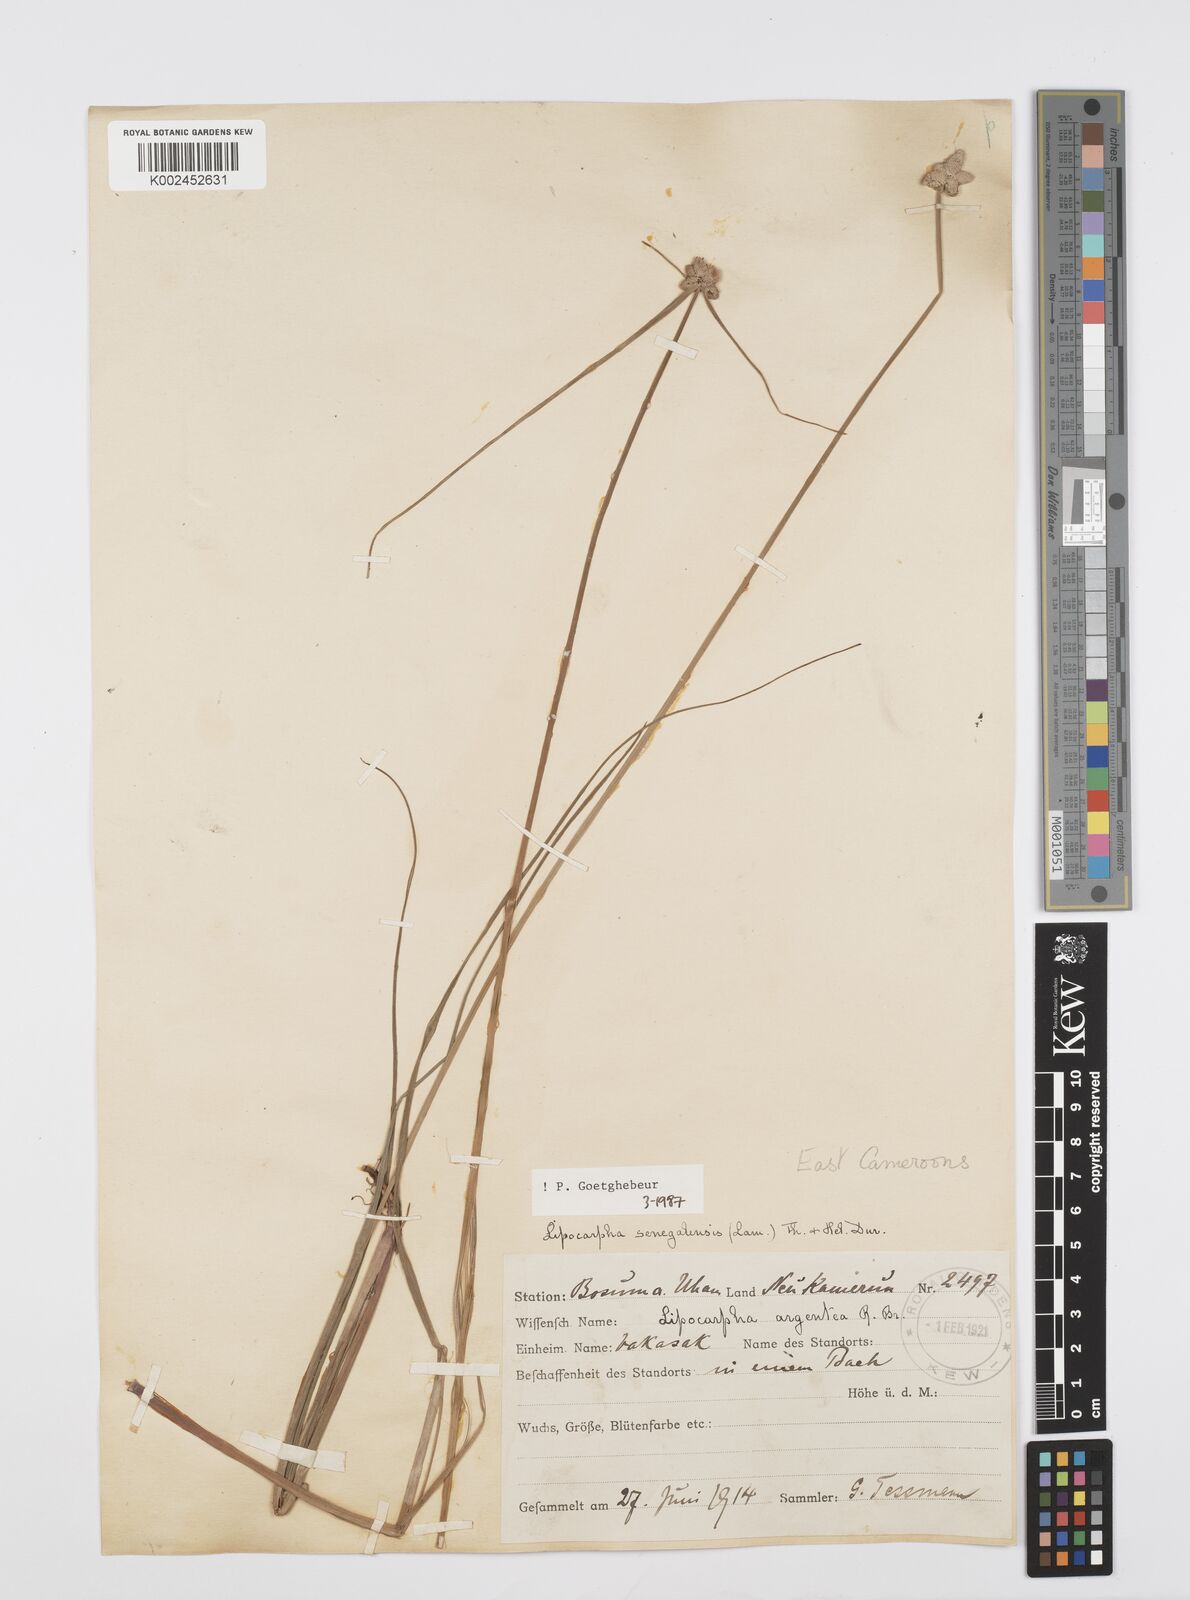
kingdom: Plantae
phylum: Tracheophyta
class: Liliopsida
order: Poales
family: Cyperaceae
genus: Cyperus
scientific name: Cyperus albescens
